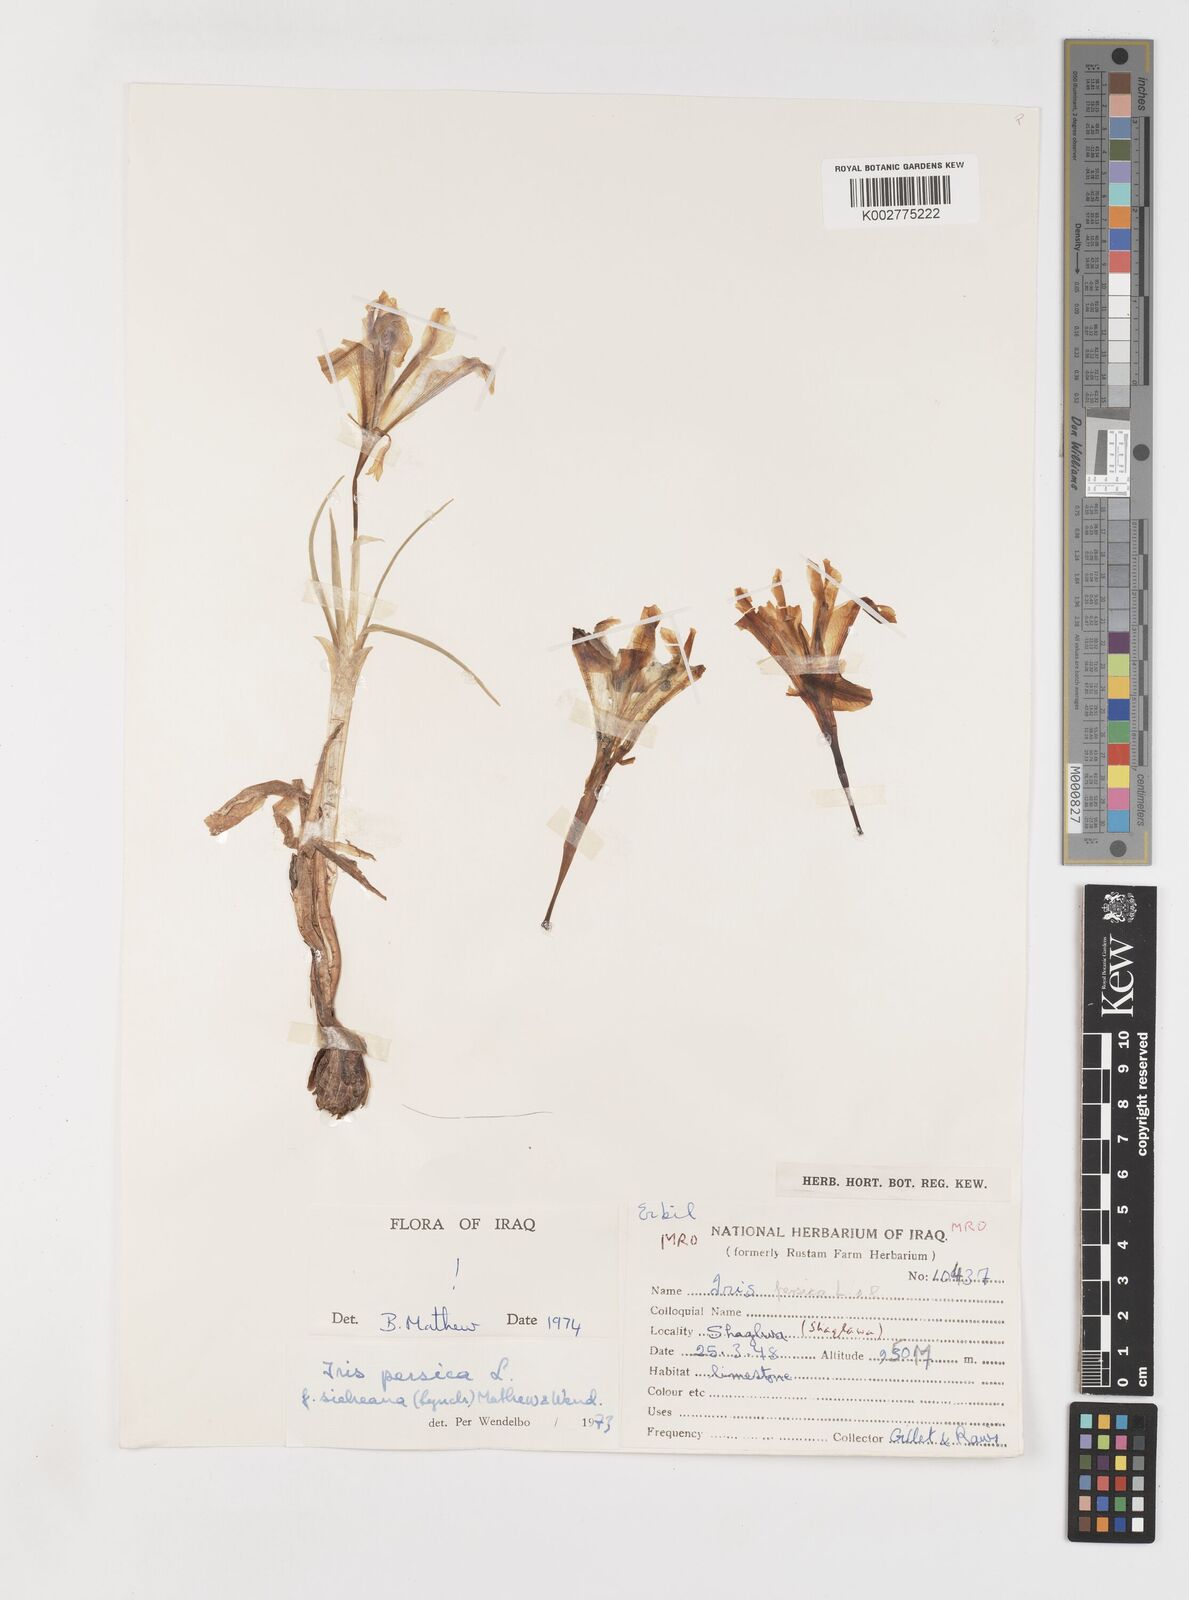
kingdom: Plantae
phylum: Tracheophyta
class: Liliopsida
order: Asparagales
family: Iridaceae
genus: Iris
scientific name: Iris persica
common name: Persian iris
